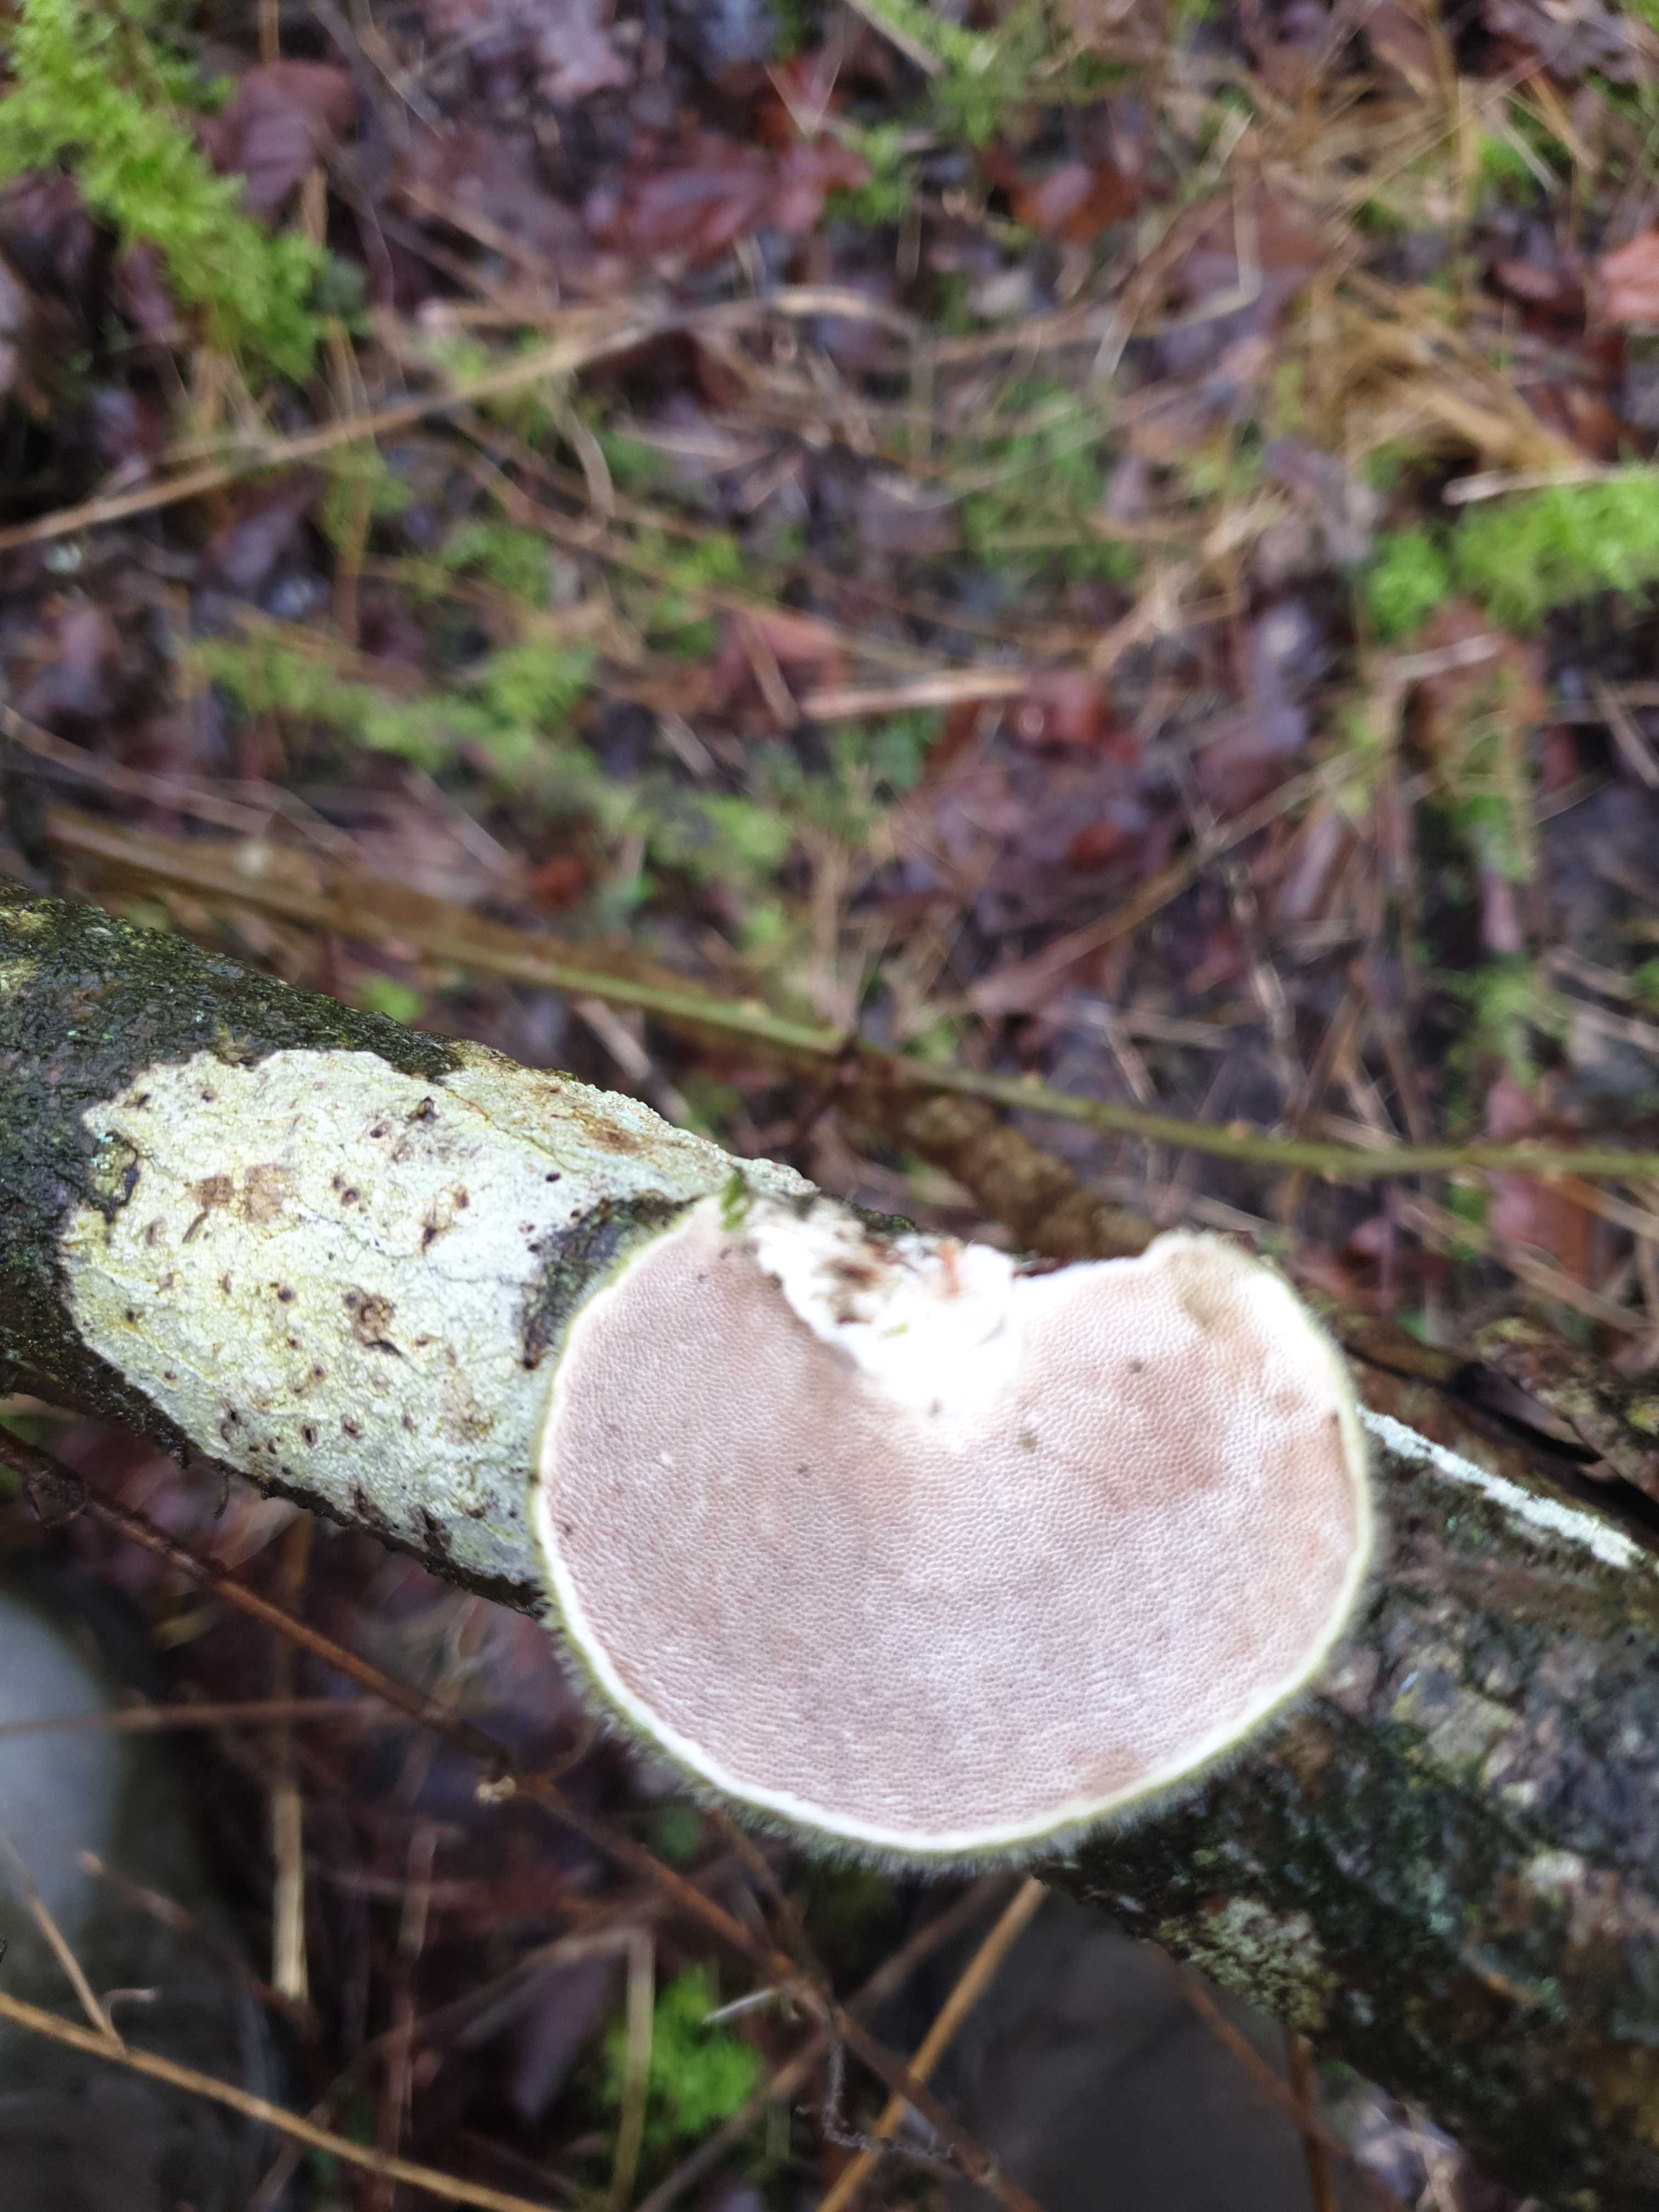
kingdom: Fungi
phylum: Basidiomycota
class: Agaricomycetes
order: Polyporales
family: Polyporaceae
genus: Trametes
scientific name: Trametes hirsuta
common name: håret læderporesvamp
